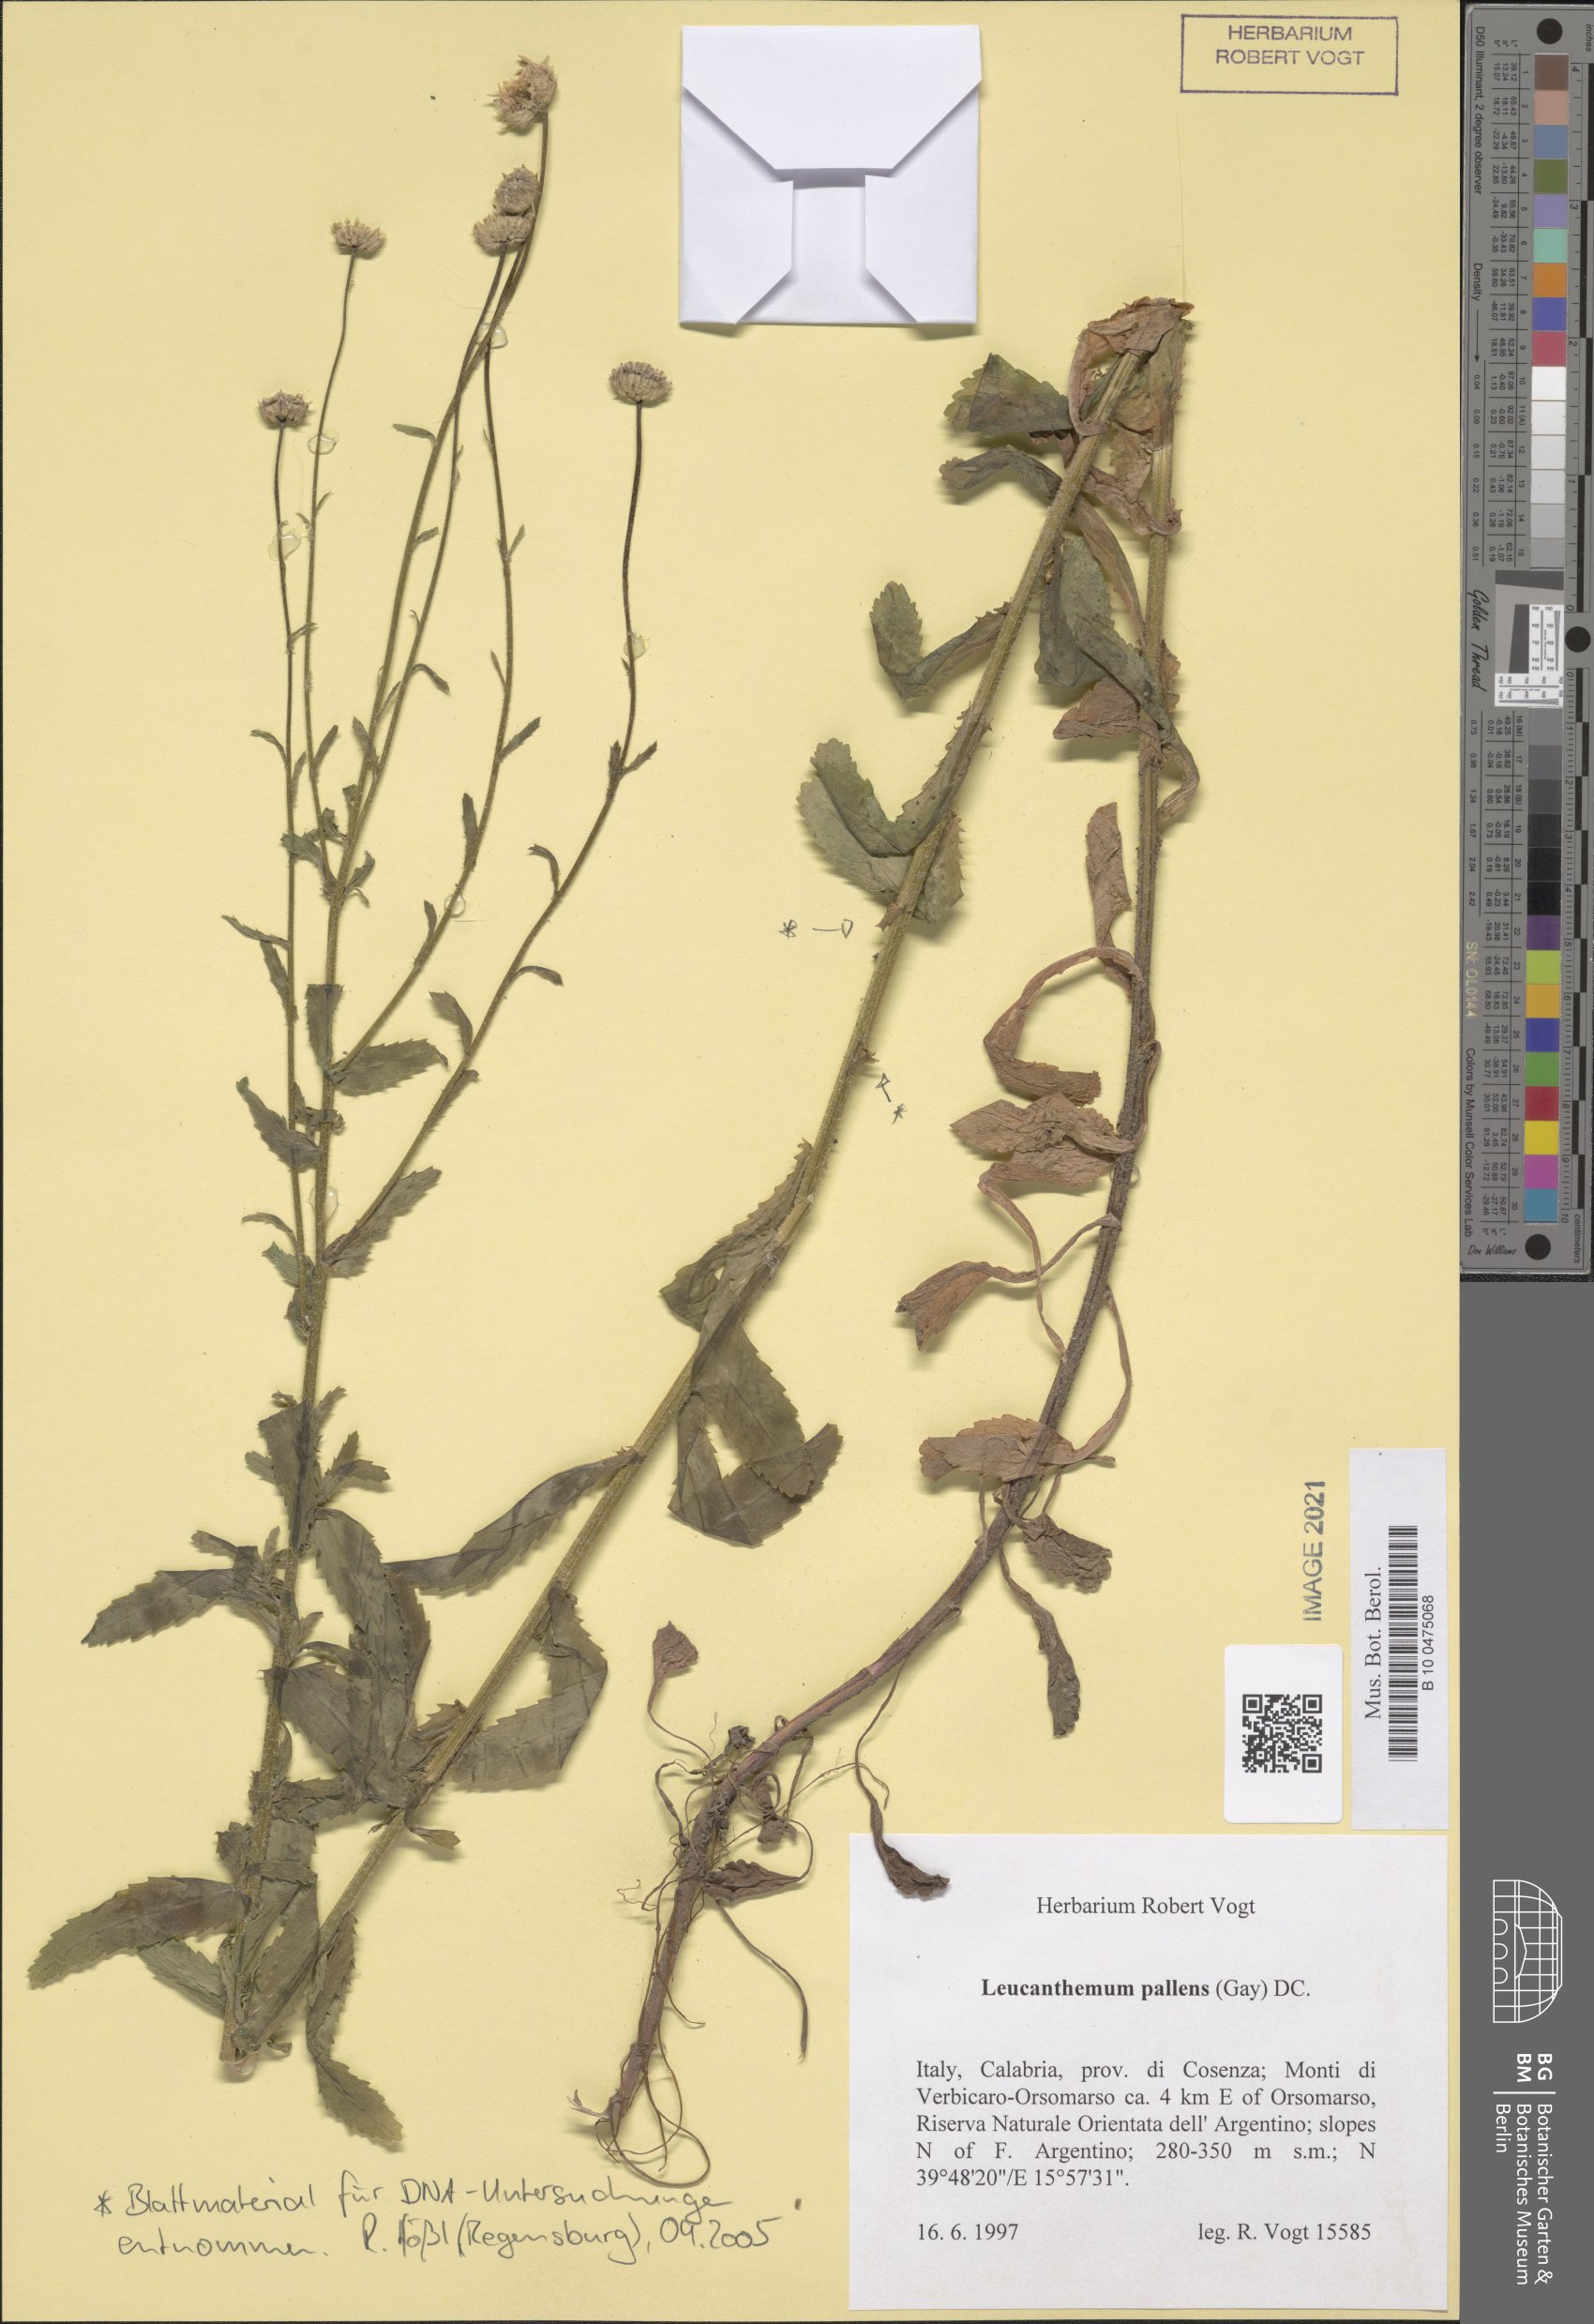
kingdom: Plantae
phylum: Tracheophyta
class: Magnoliopsida
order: Asterales
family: Asteraceae
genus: Leucanthemum
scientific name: Leucanthemum ircutianum
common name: Daisy
